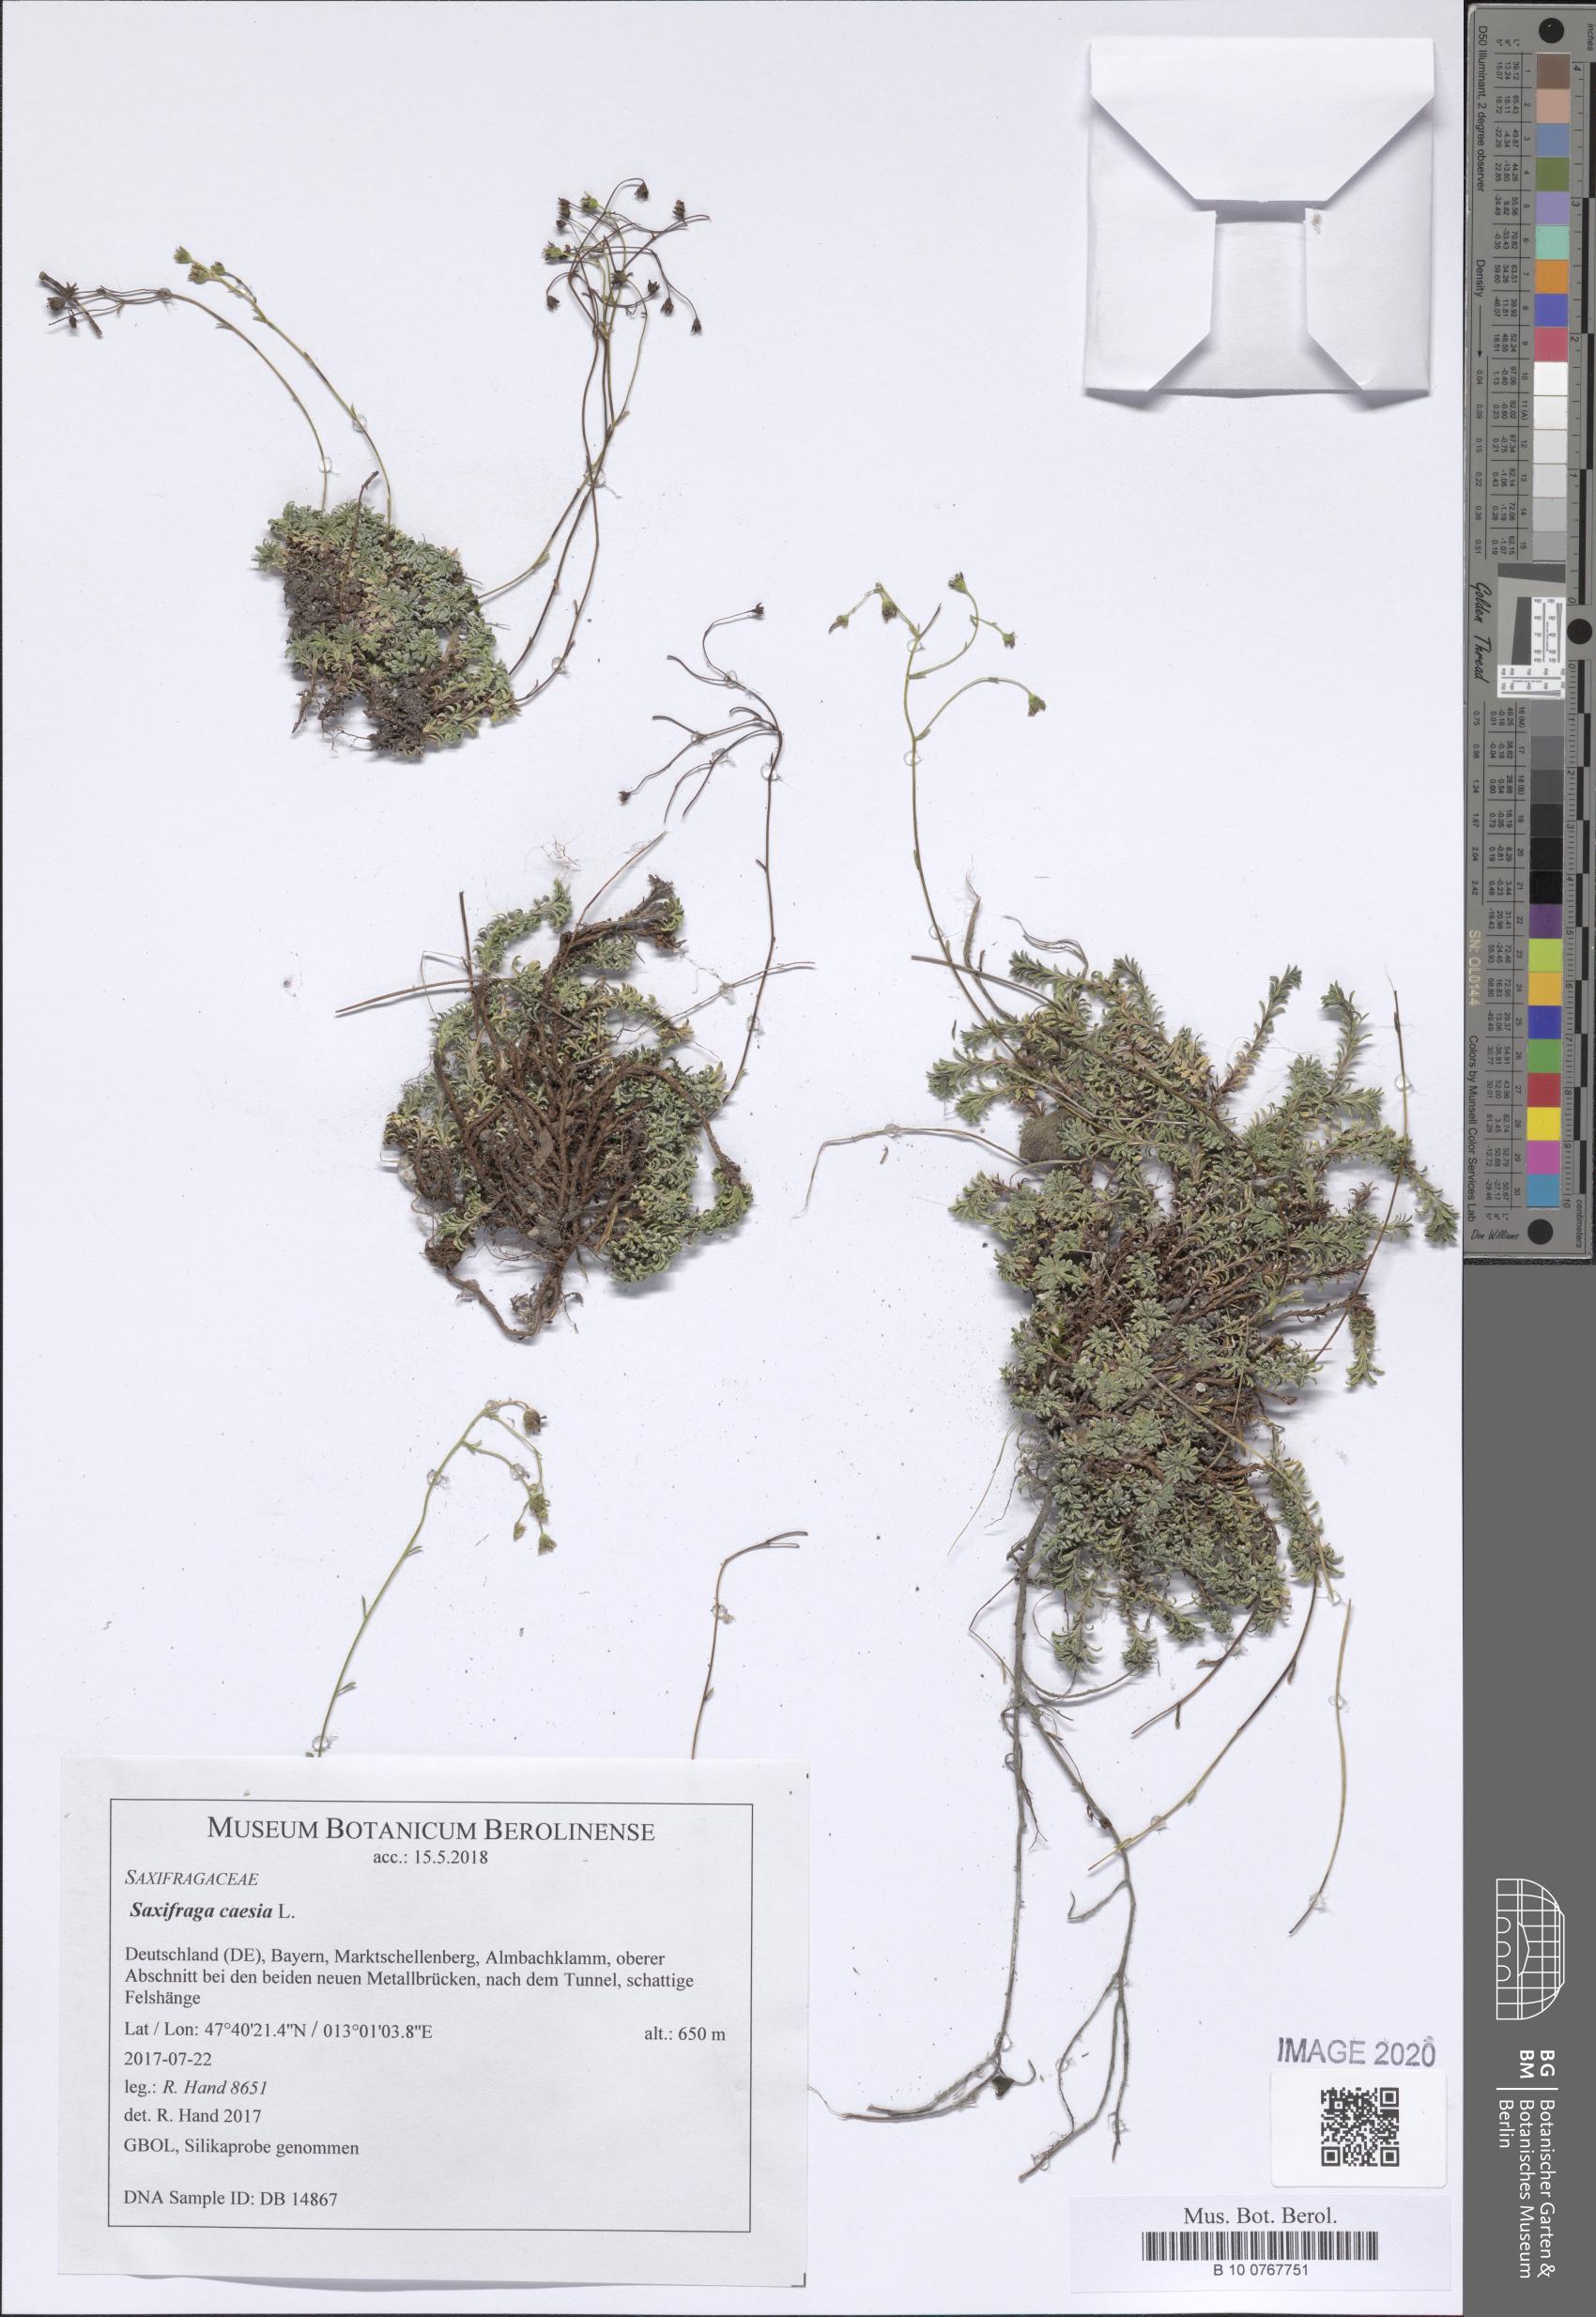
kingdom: Plantae
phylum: Tracheophyta
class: Magnoliopsida
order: Saxifragales
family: Saxifragaceae
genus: Saxifraga
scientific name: Saxifraga caesia
